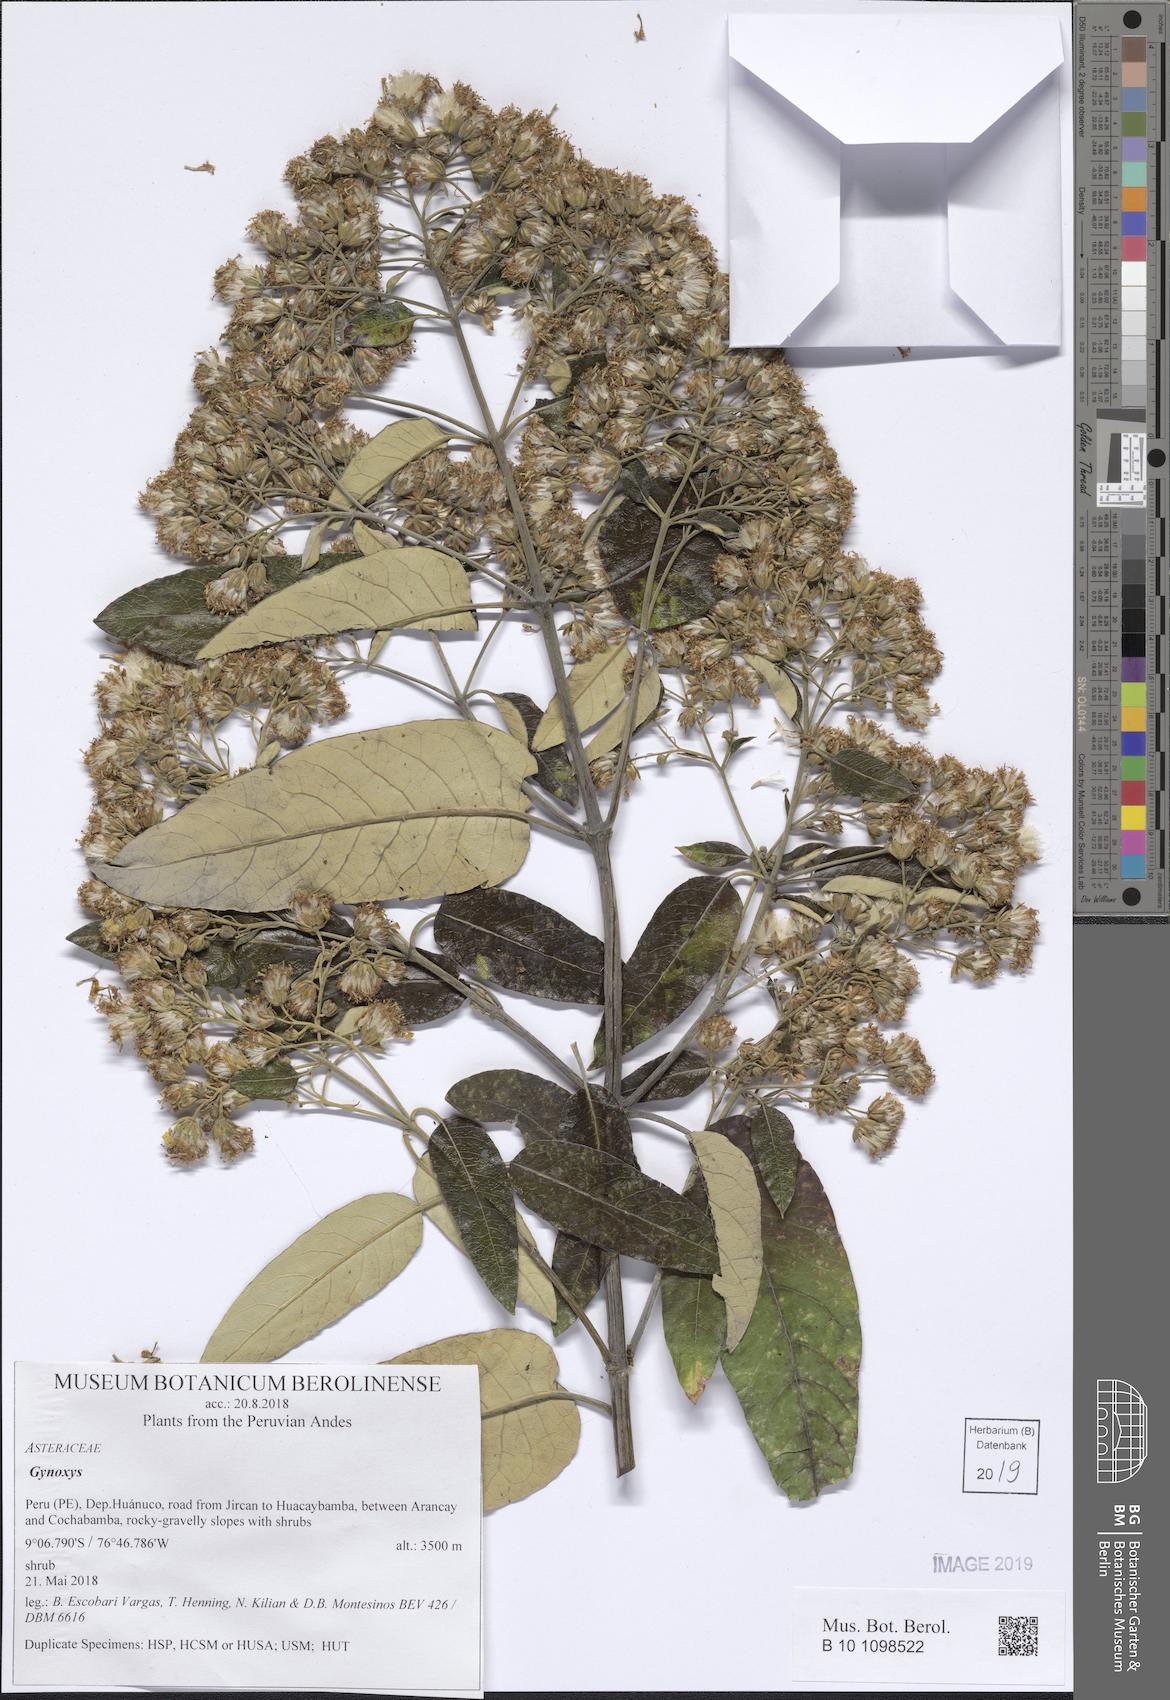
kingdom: Plantae
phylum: Tracheophyta
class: Magnoliopsida
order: Asterales
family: Asteraceae
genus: Gynoxys
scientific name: Gynoxys
